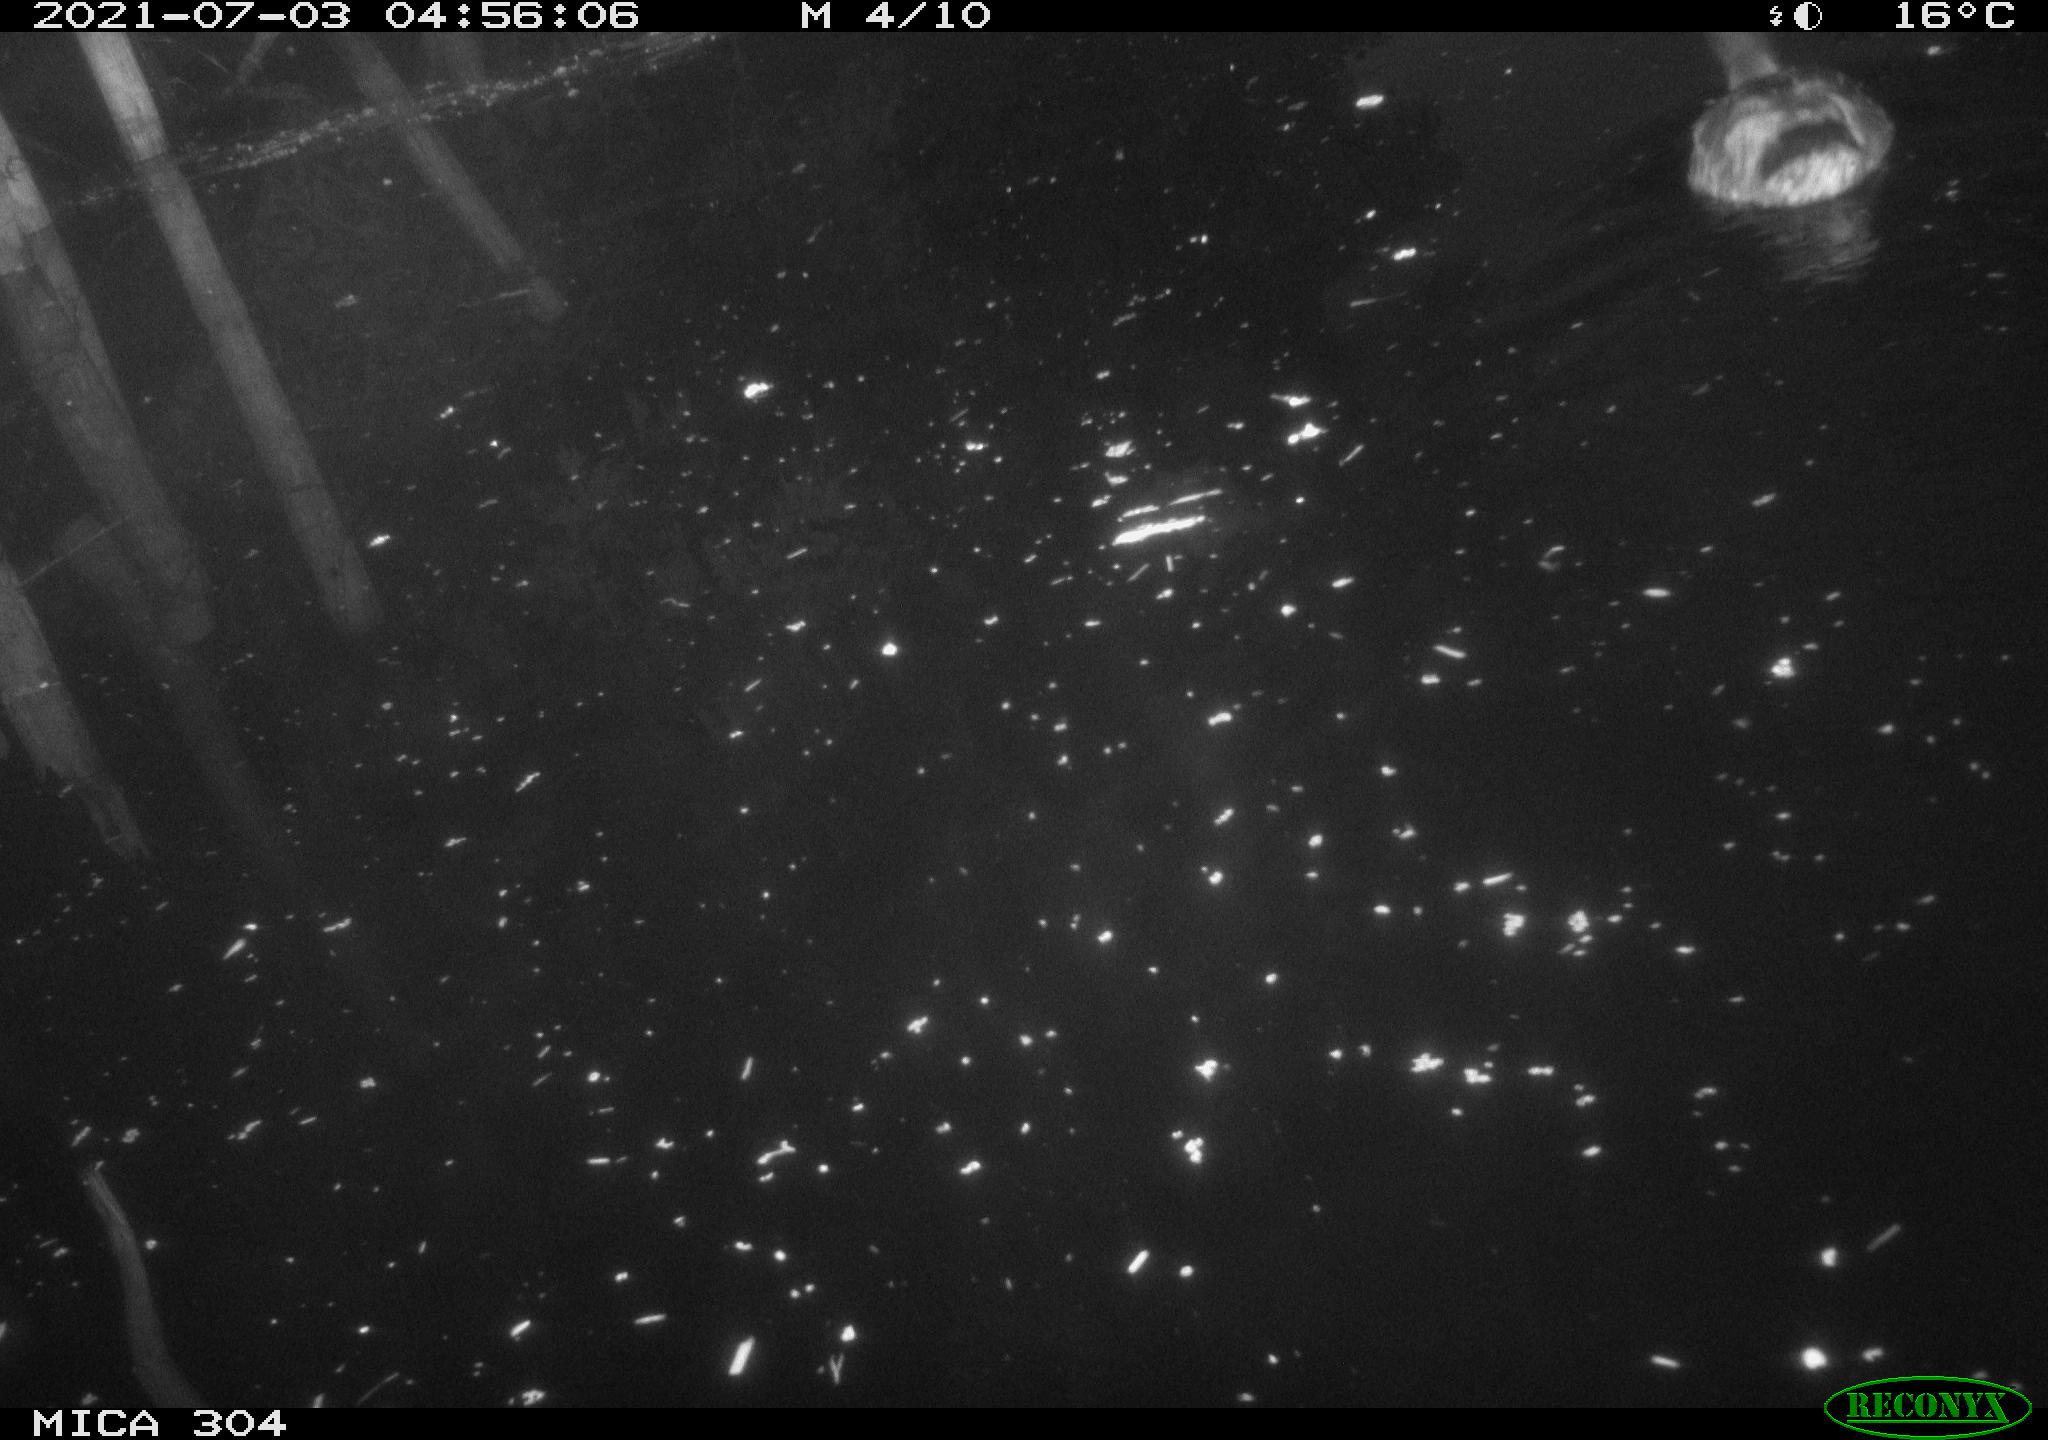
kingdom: Animalia
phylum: Chordata
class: Aves
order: Anseriformes
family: Anatidae
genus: Anas
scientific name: Anas platyrhynchos
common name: Mallard
